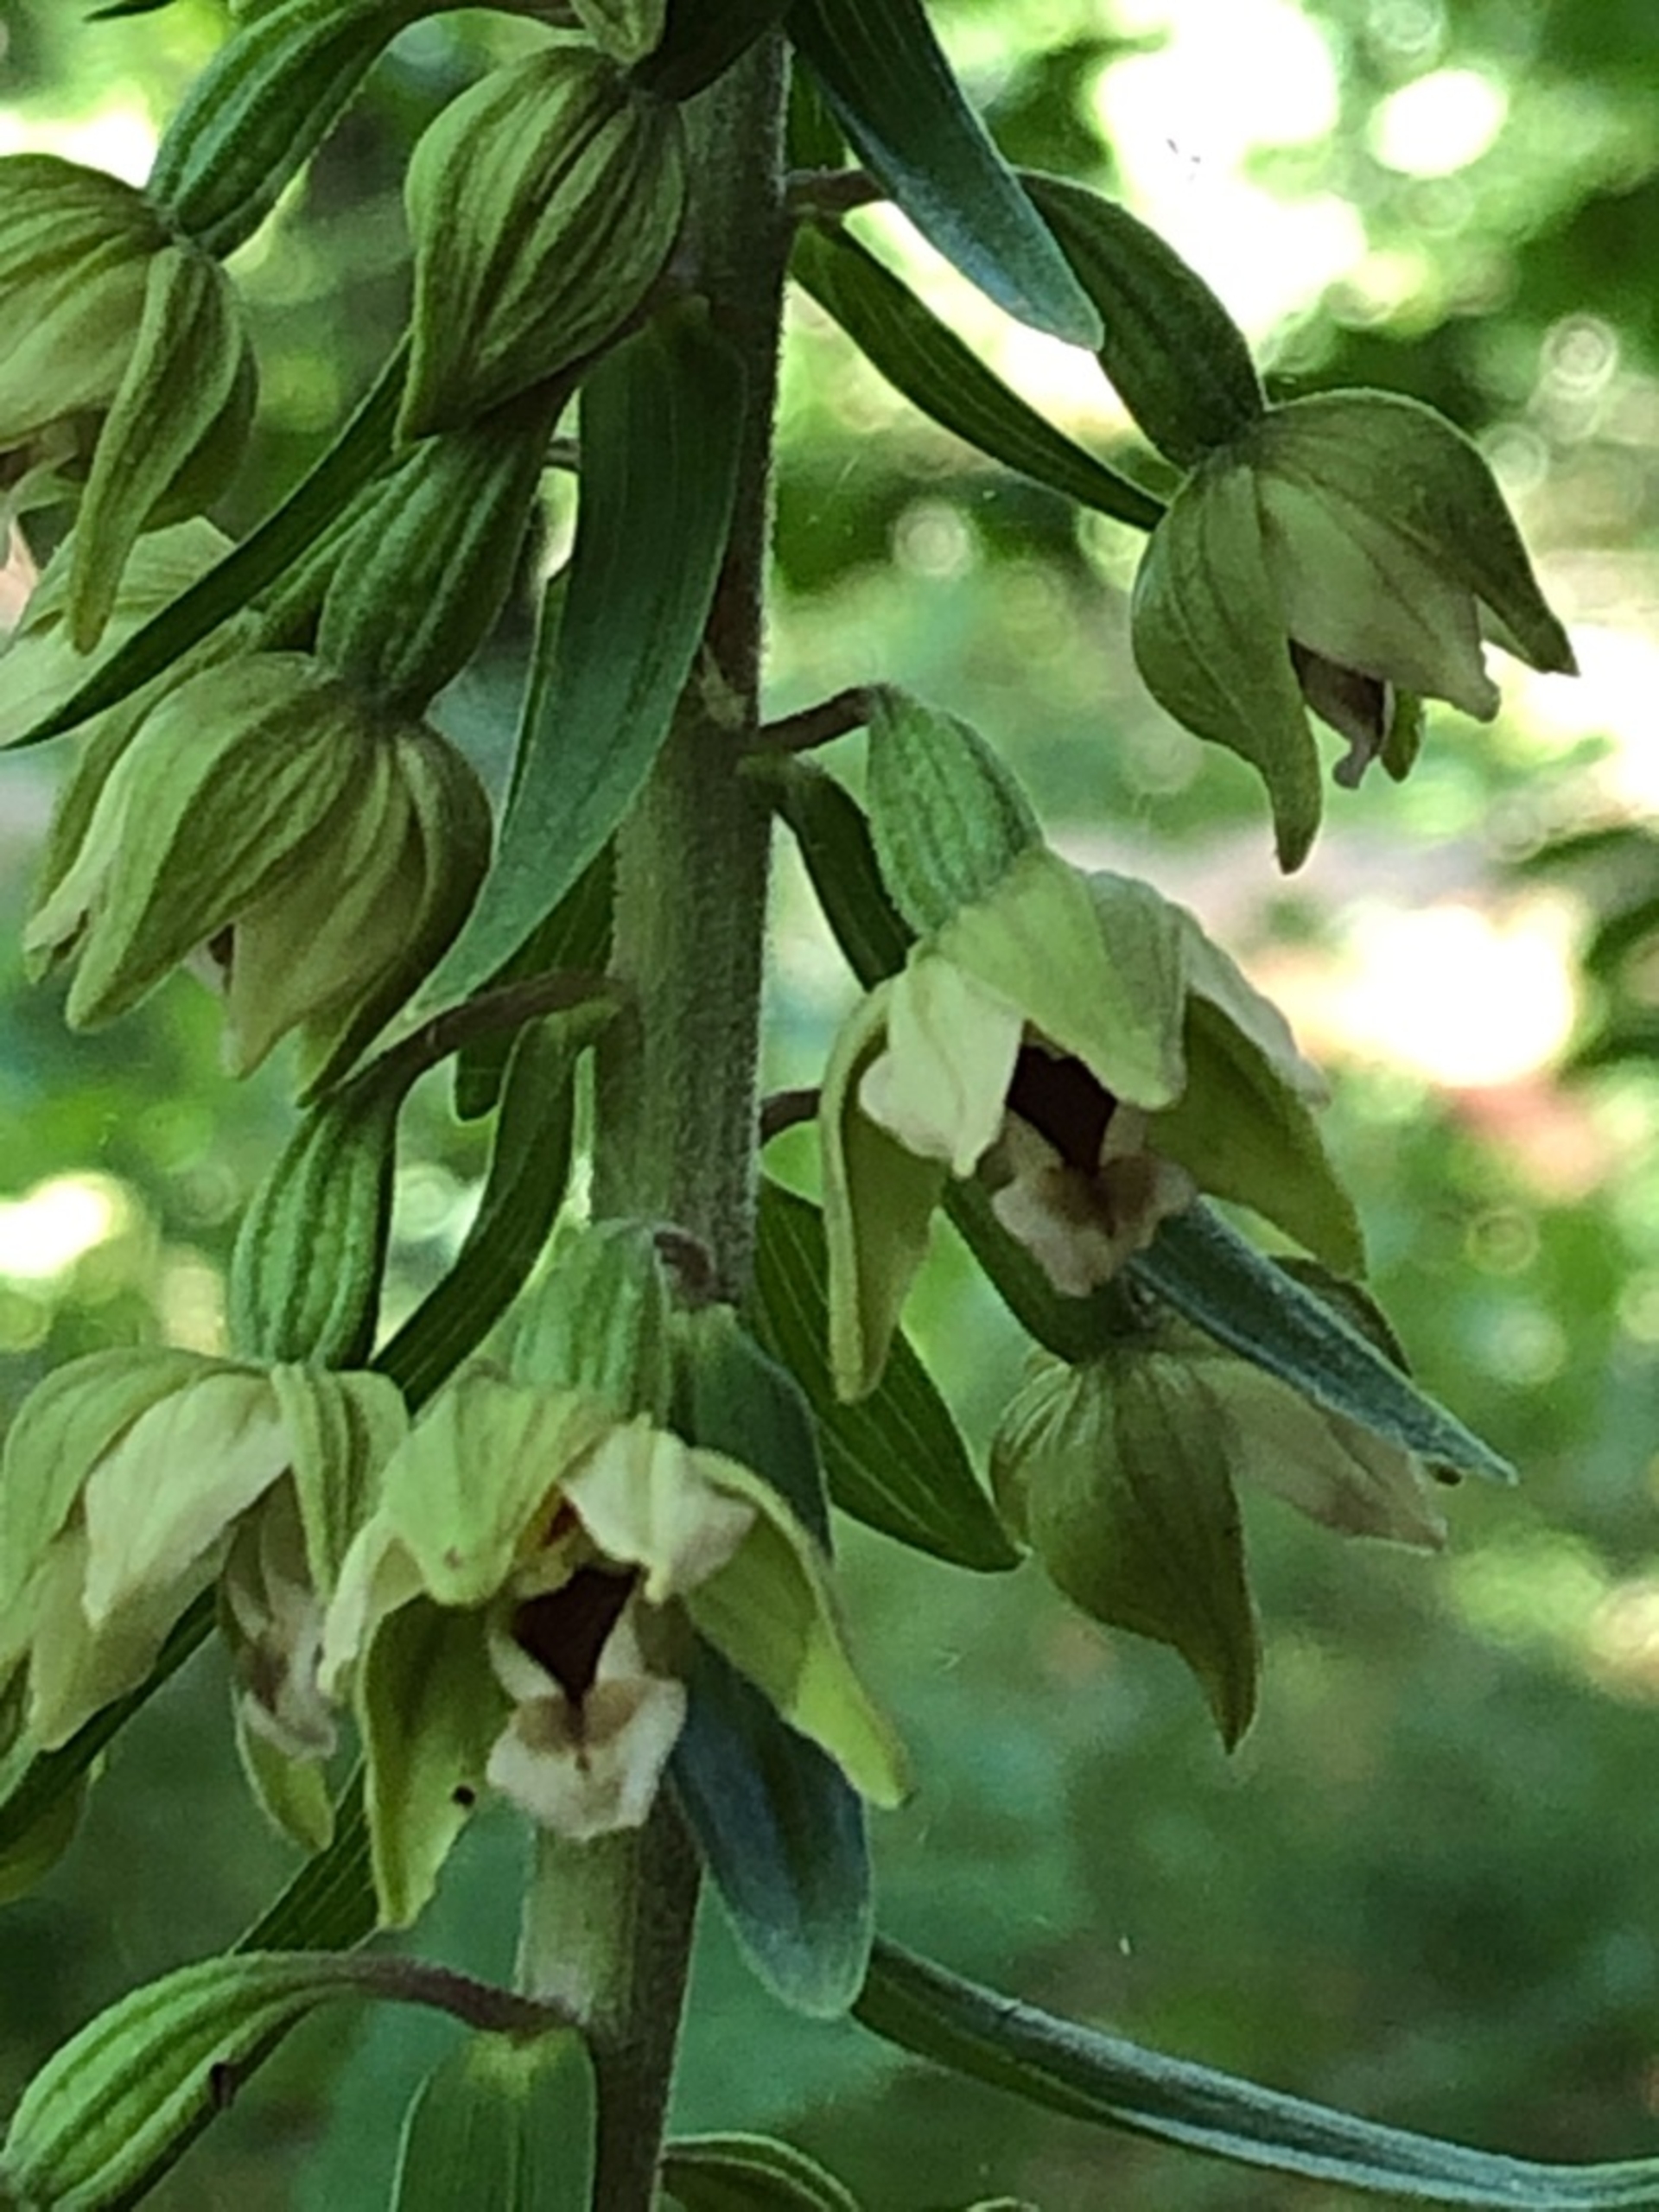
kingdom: Plantae
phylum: Tracheophyta
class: Liliopsida
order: Asparagales
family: Orchidaceae
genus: Epipactis
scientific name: Epipactis helleborine
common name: Skov-hullæbe
